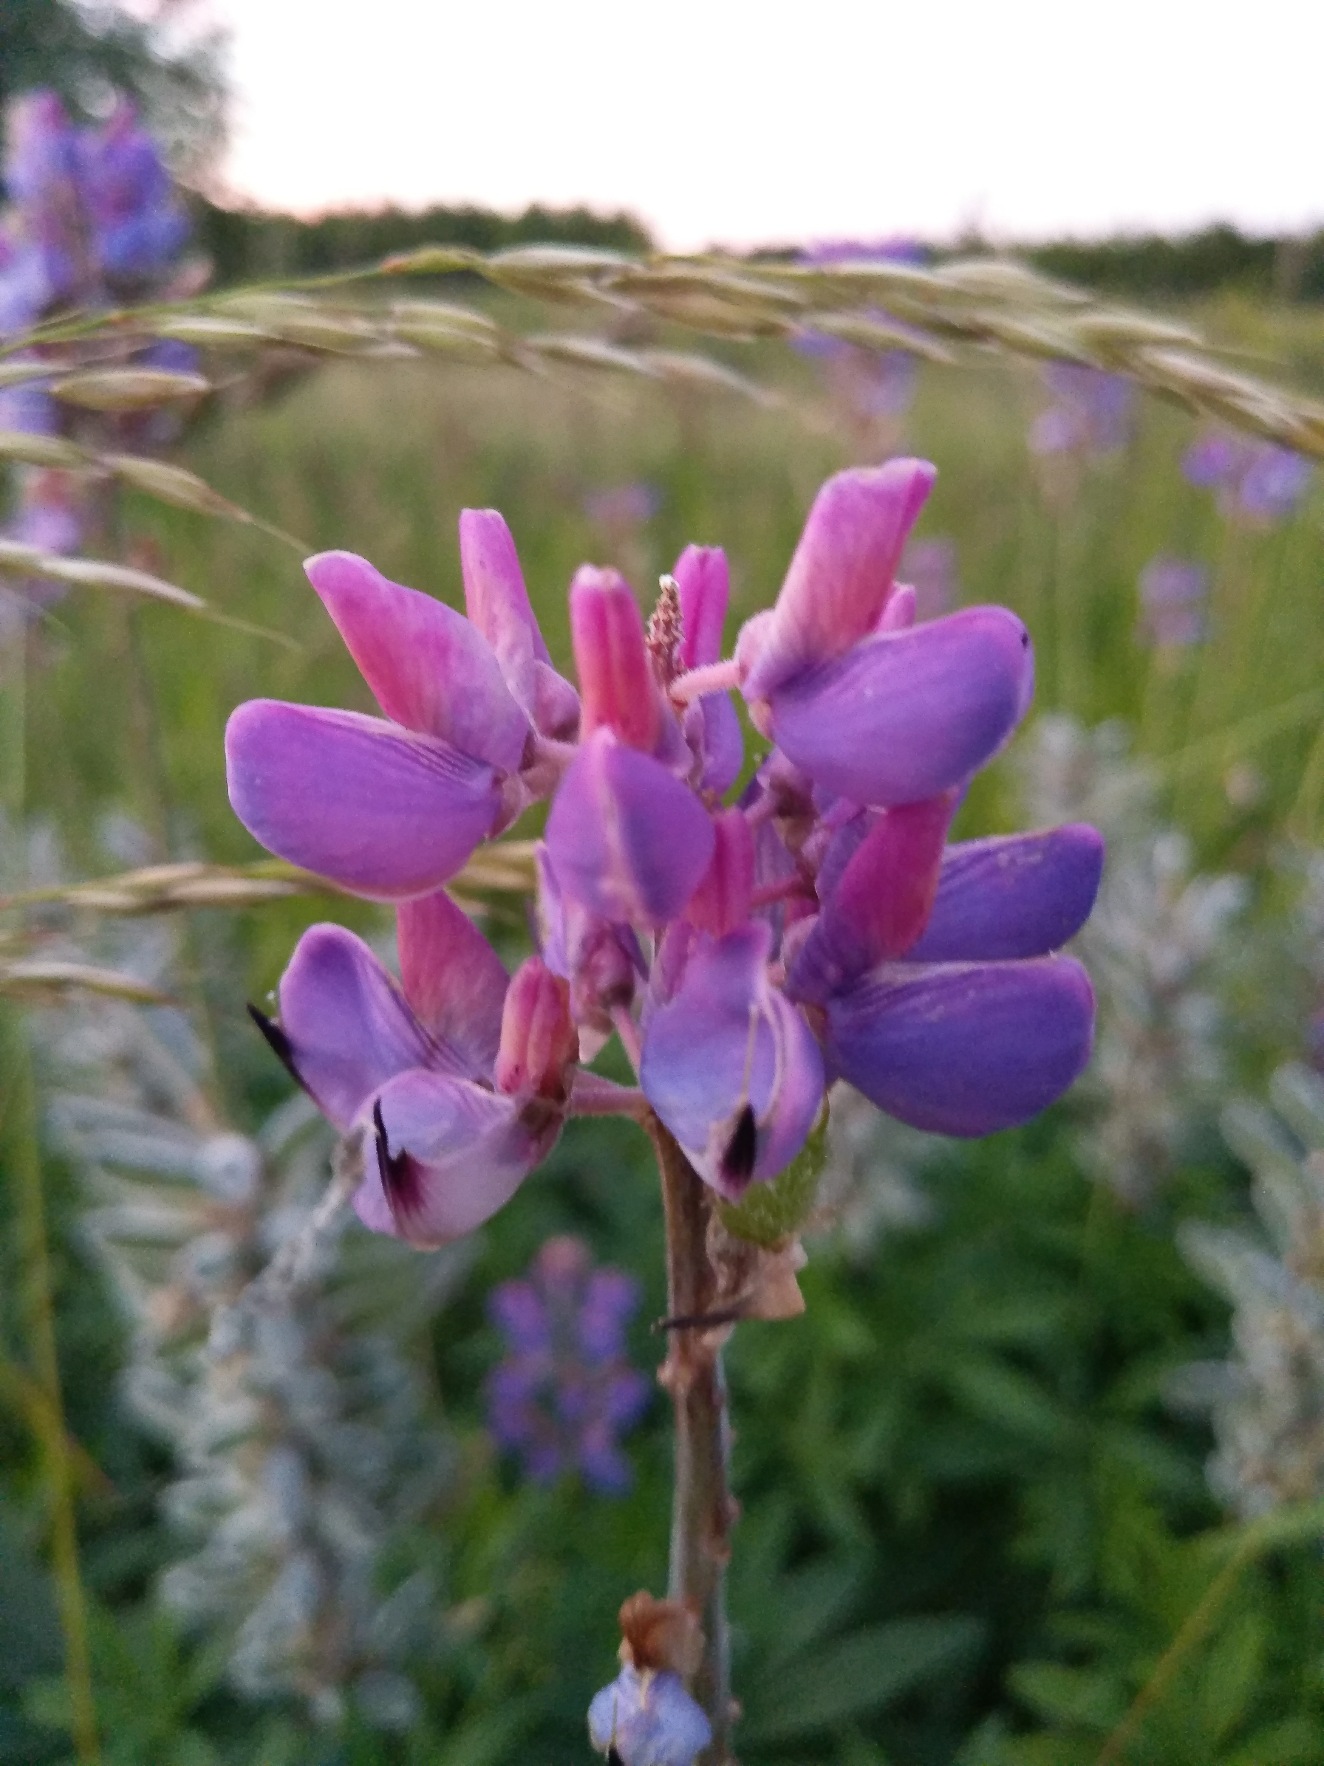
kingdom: Plantae
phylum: Tracheophyta
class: Magnoliopsida
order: Fabales
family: Fabaceae
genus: Lupinus
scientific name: Lupinus polyphyllus
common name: Mangebladet lupin
